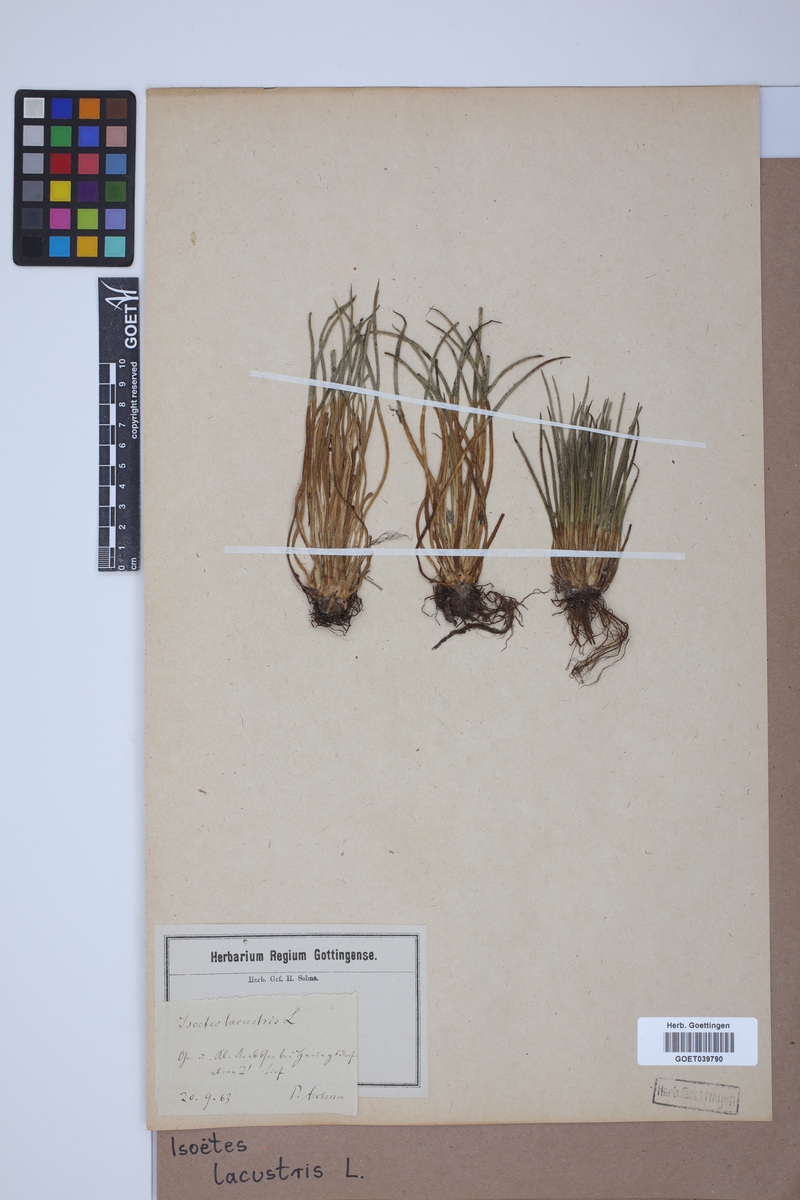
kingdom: Plantae
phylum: Tracheophyta
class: Lycopodiopsida
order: Isoetales
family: Isoetaceae
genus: Isoetes
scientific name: Isoetes lacustris
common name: Common quillwort
